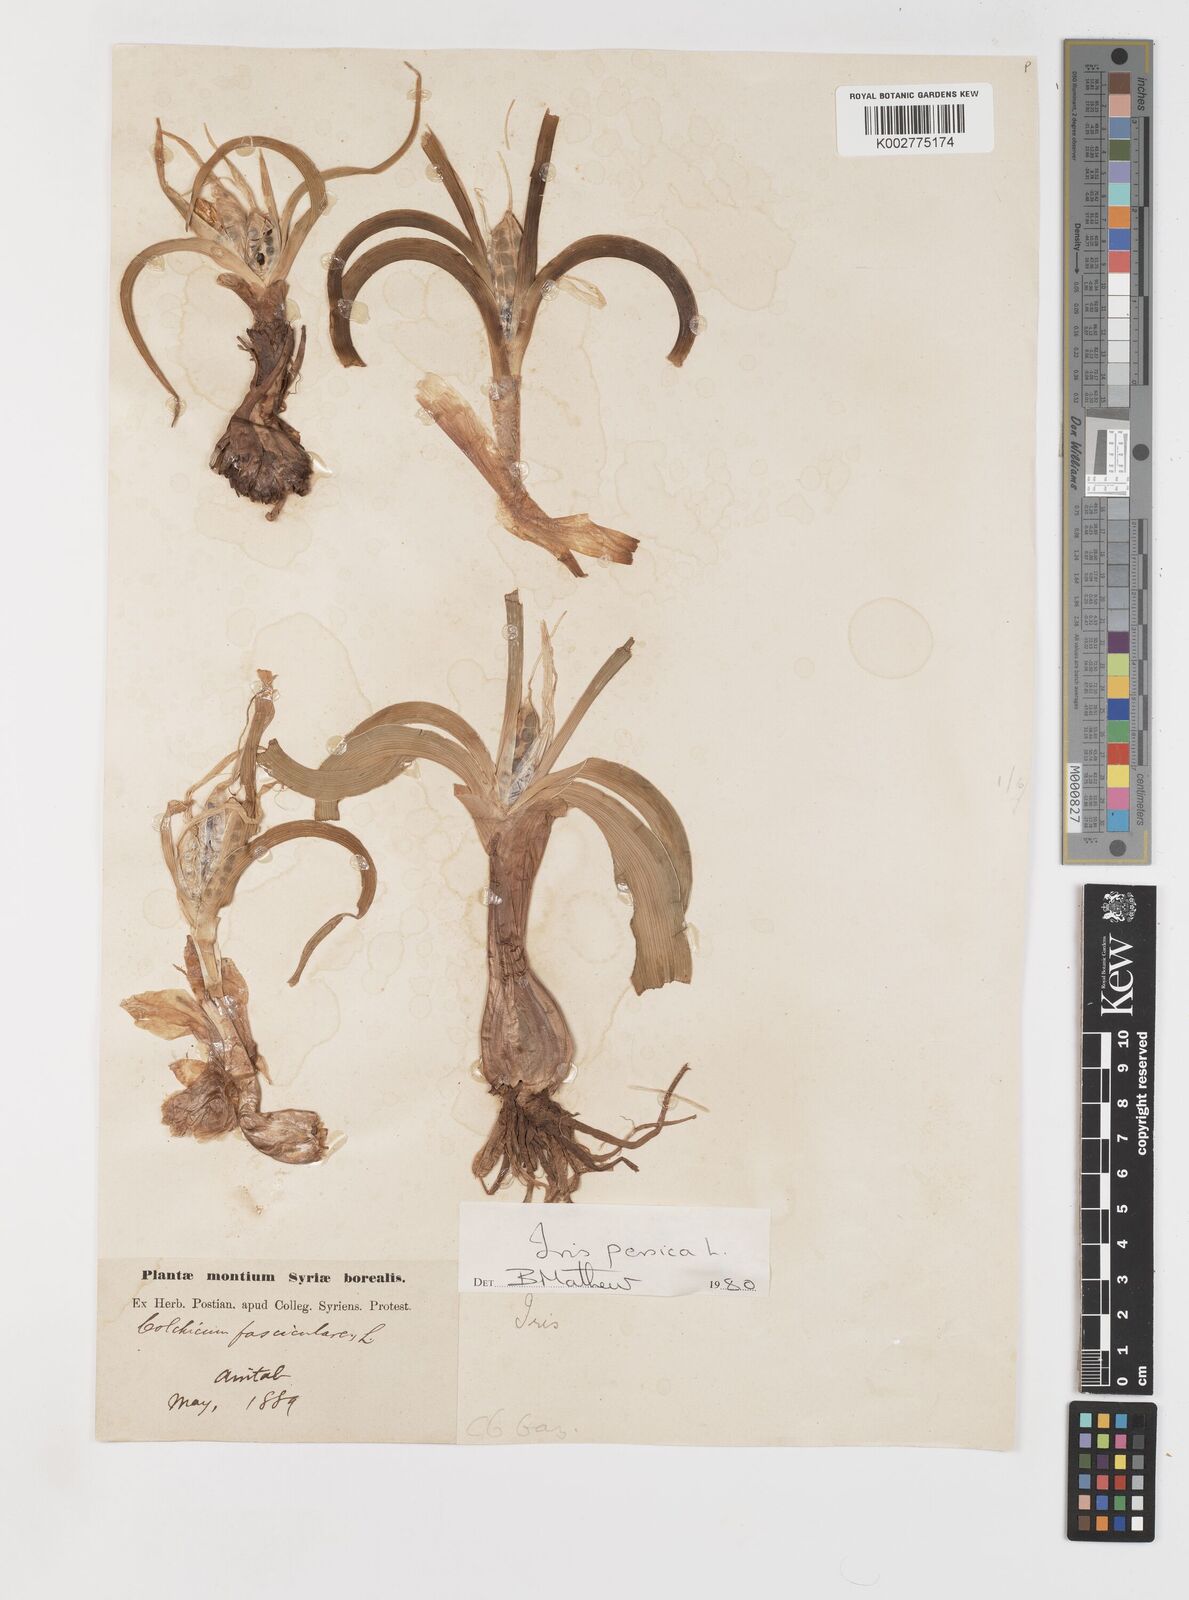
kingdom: Plantae
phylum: Tracheophyta
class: Liliopsida
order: Asparagales
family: Iridaceae
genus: Iris
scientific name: Iris persica
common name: Persian iris
